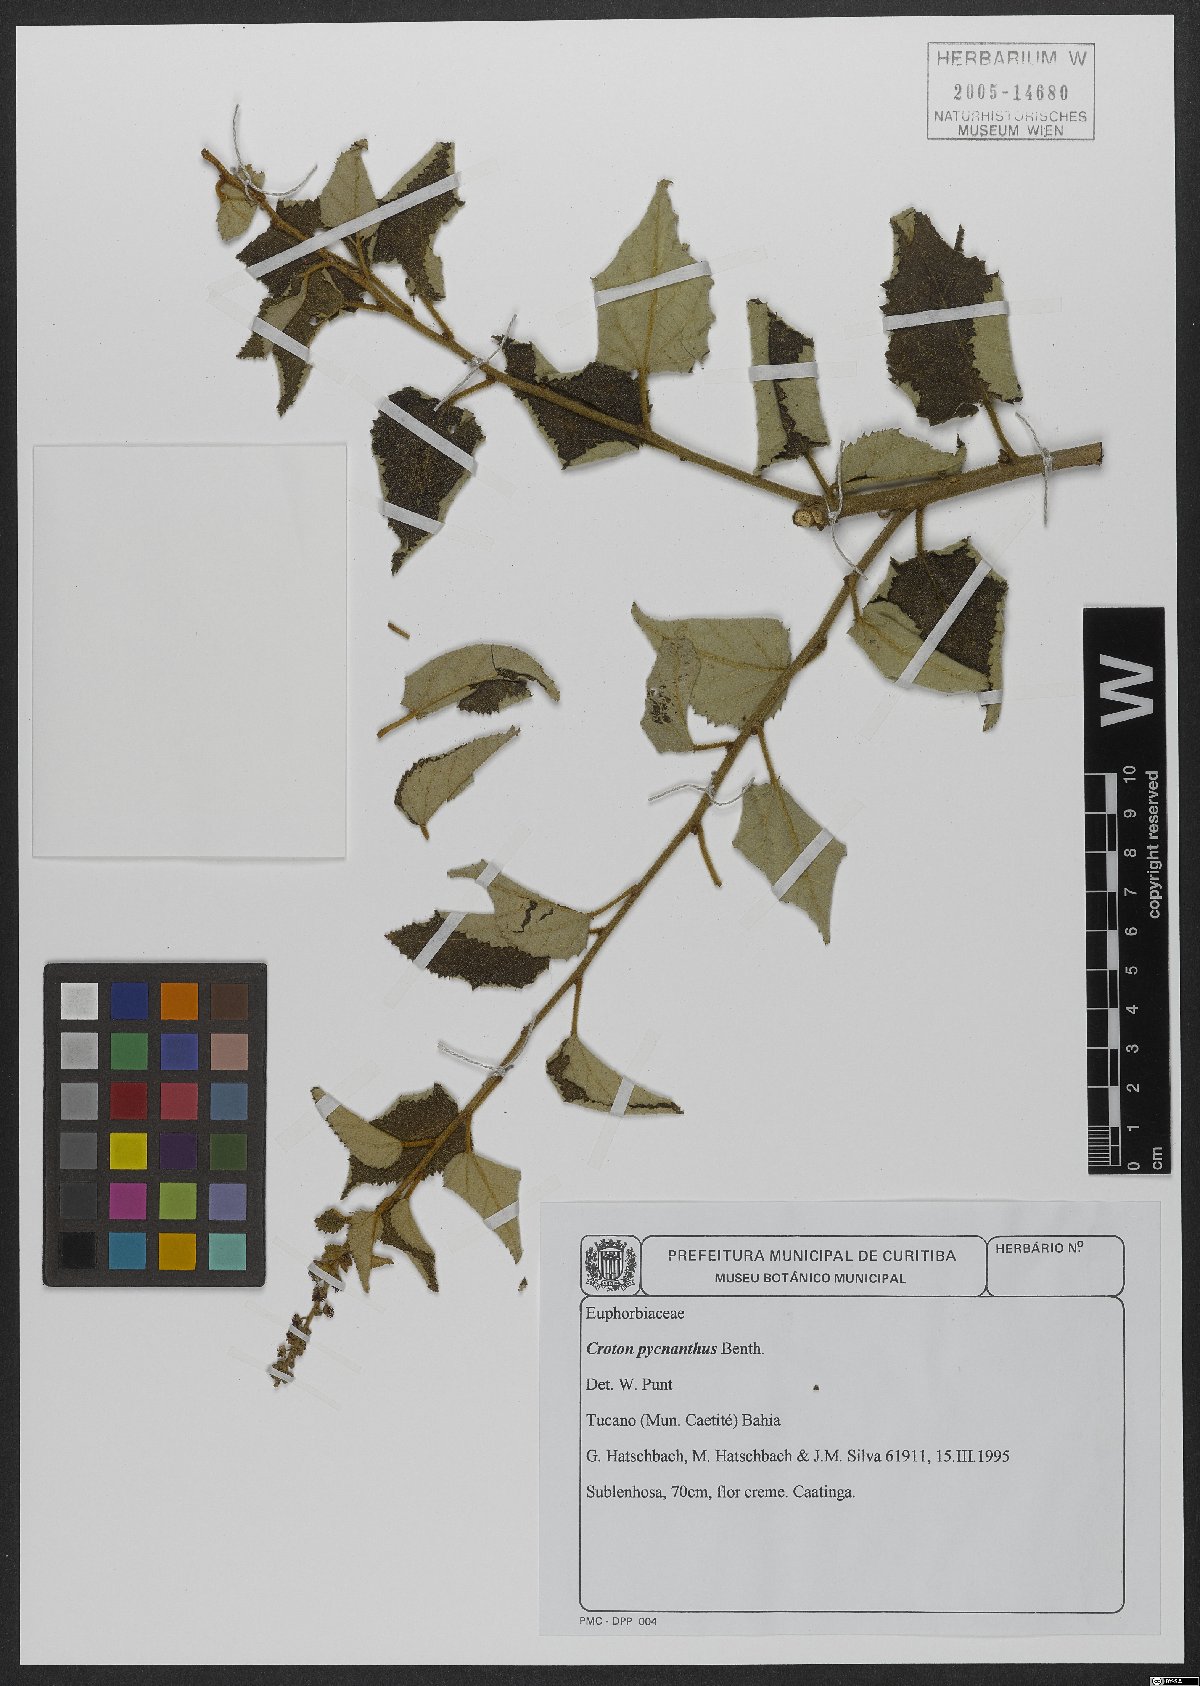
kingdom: Plantae
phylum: Tracheophyta
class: Magnoliopsida
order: Malpighiales
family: Euphorbiaceae
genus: Croton
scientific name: Croton pycnanthus
